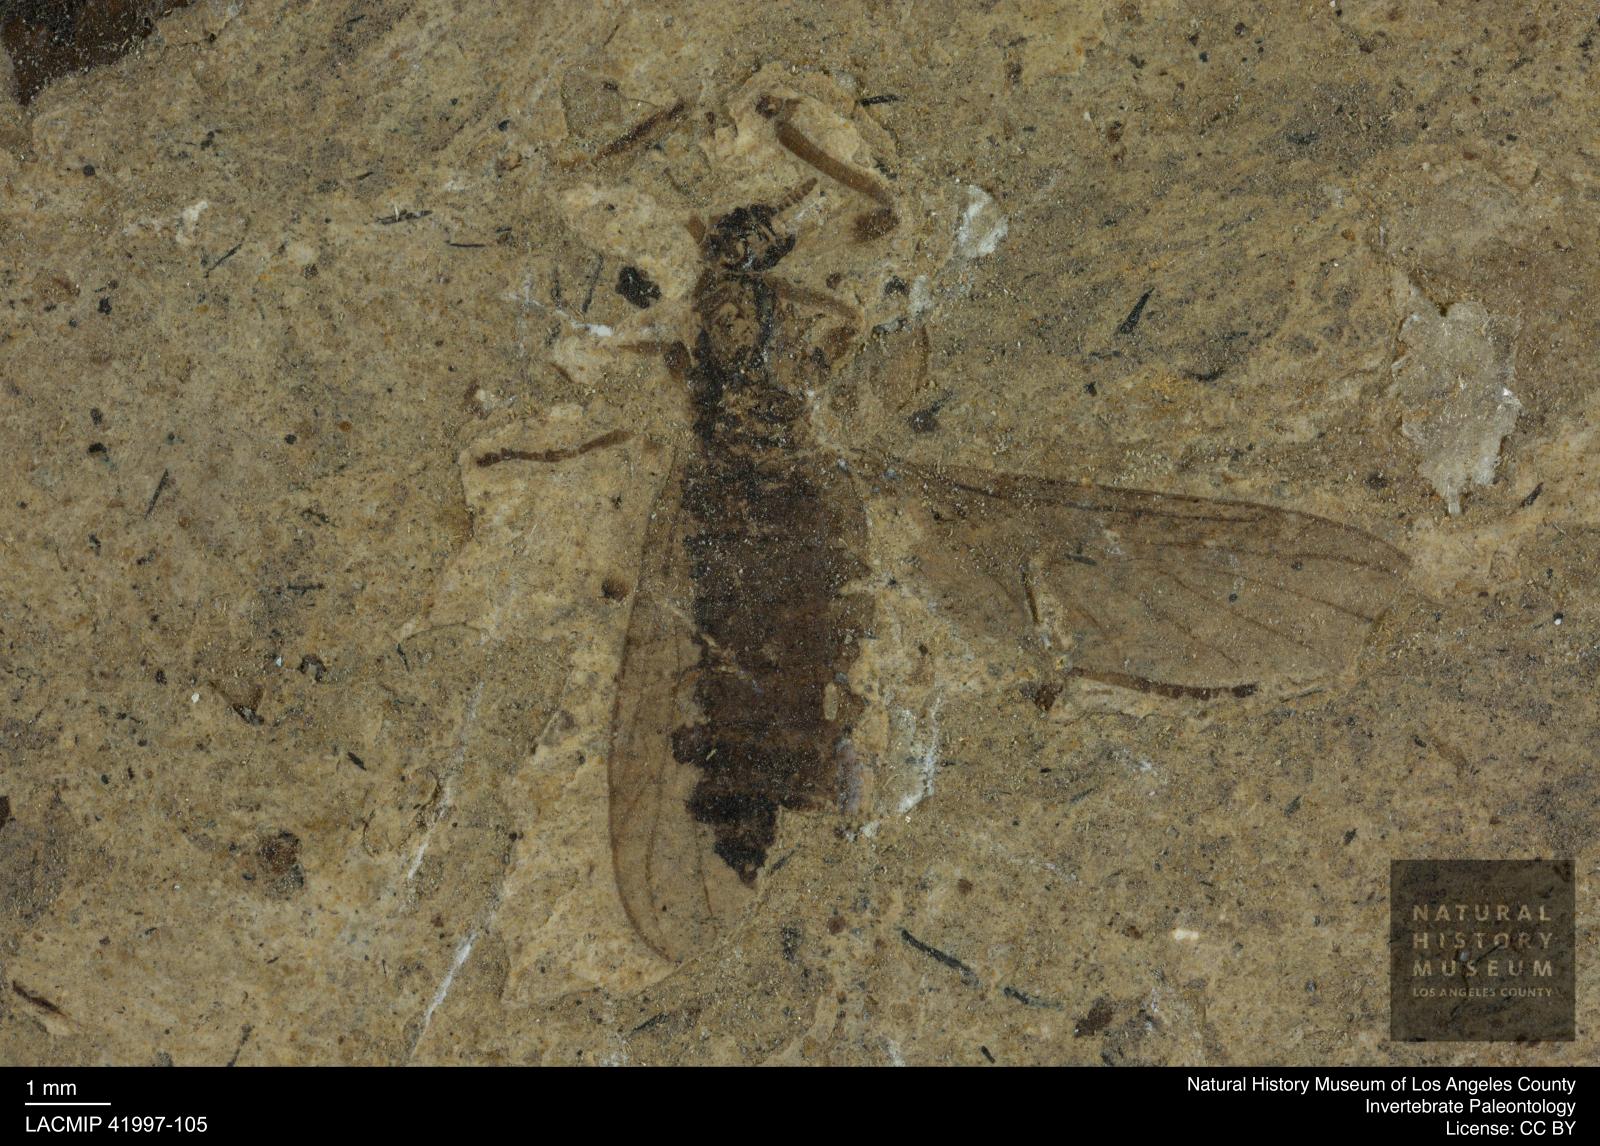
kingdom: Animalia
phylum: Arthropoda
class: Insecta
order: Diptera
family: Bibionidae
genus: Penthetria
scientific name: Penthetria
